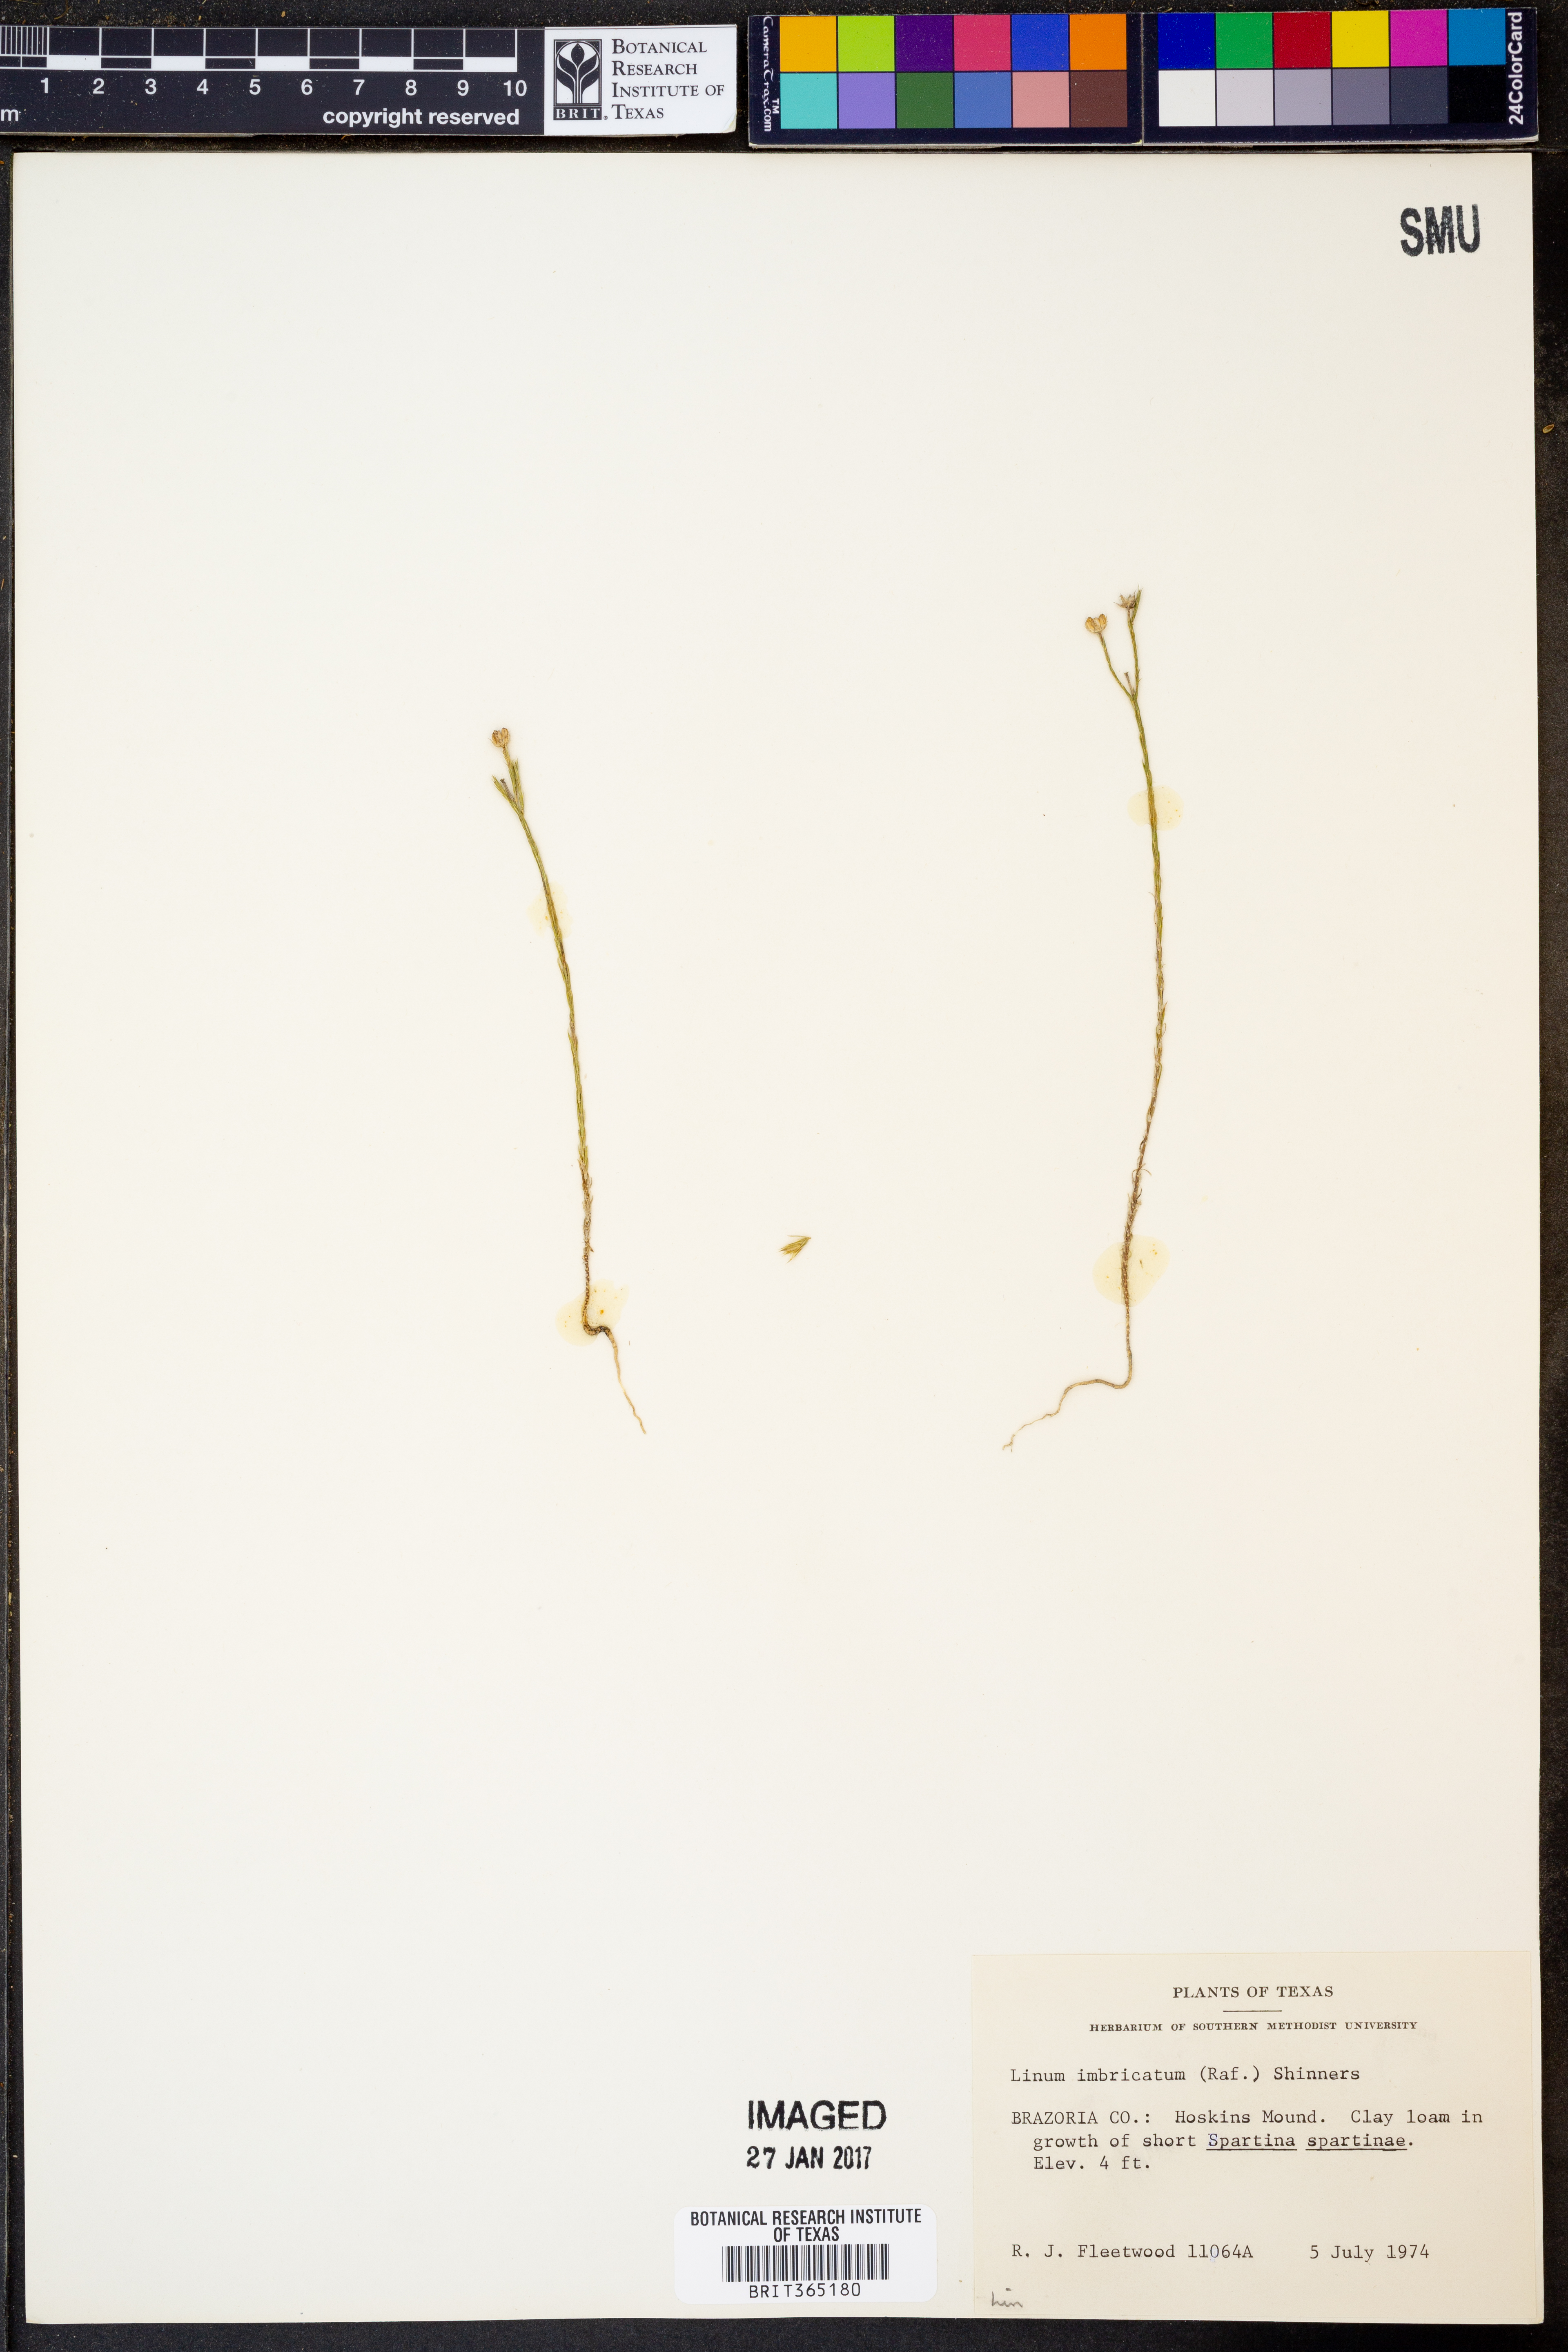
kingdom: Plantae
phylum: Tracheophyta
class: Magnoliopsida
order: Malpighiales
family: Linaceae
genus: Linum
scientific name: Linum imbricatum
